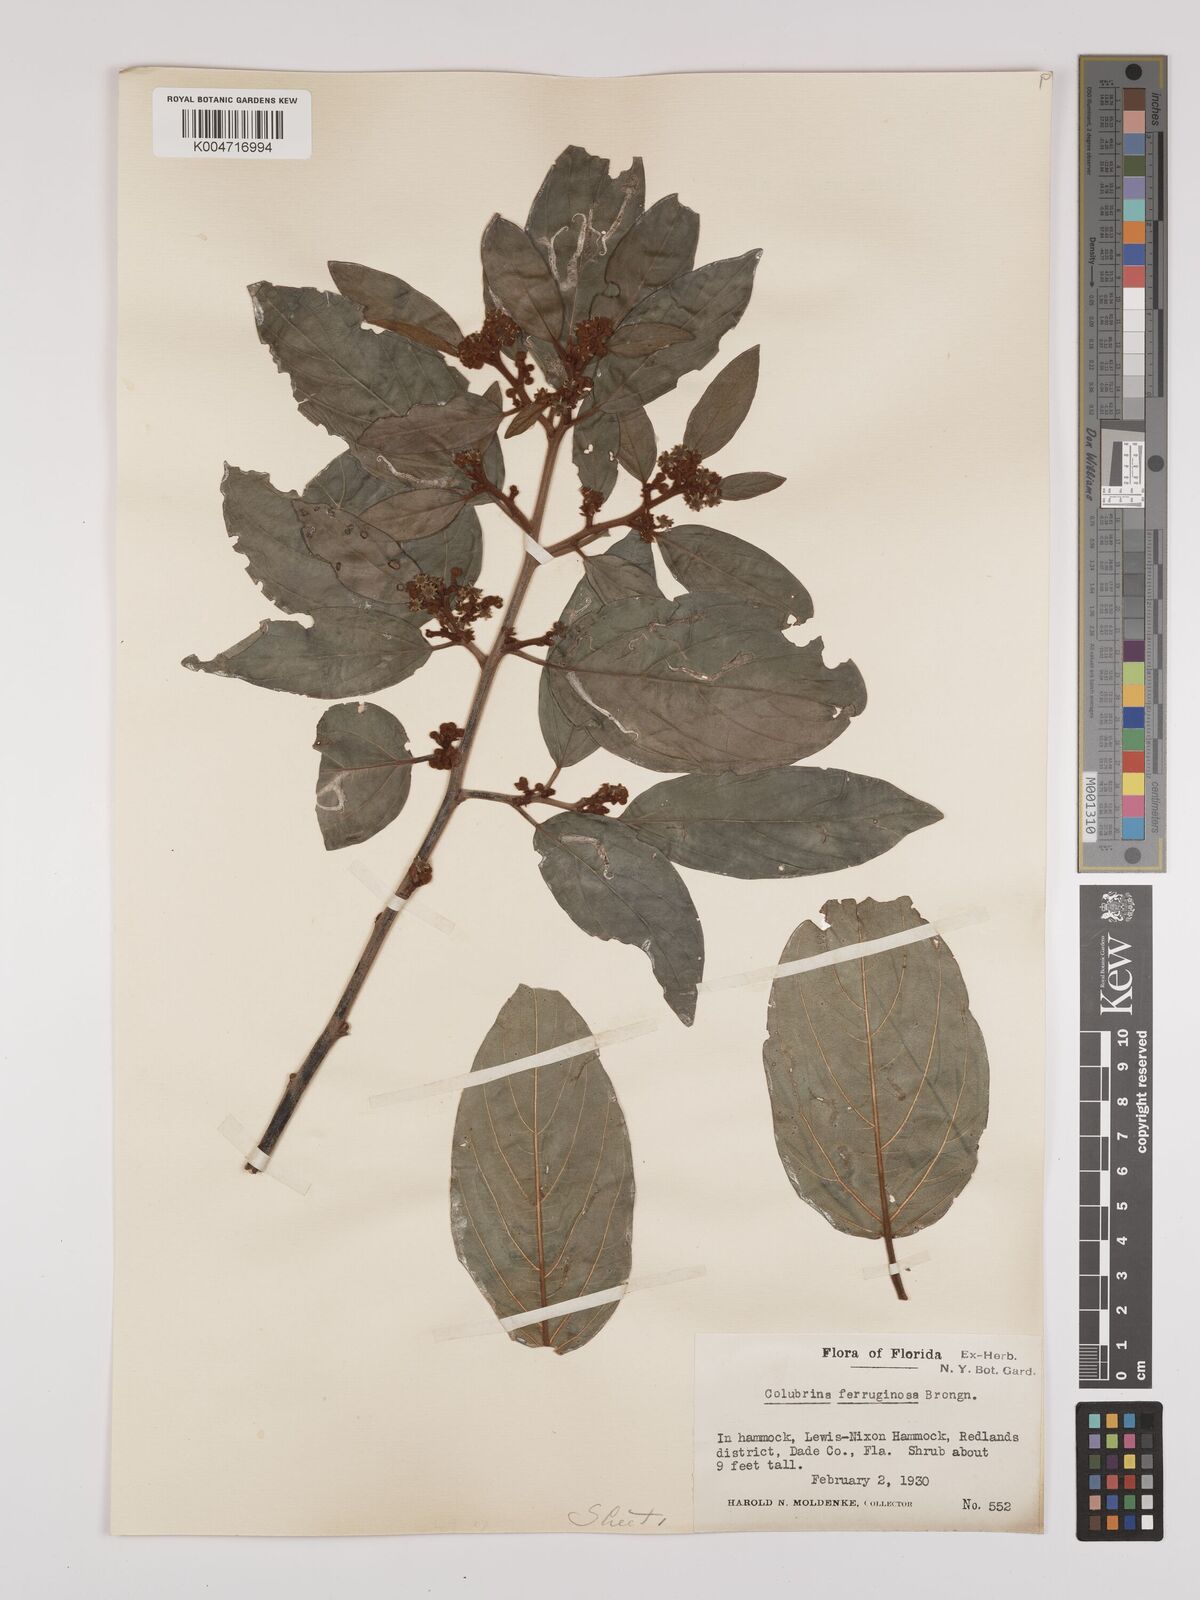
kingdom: Plantae
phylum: Tracheophyta
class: Magnoliopsida
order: Rosales
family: Rhamnaceae
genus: Colubrina
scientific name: Colubrina arborescens
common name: Wild coffee
